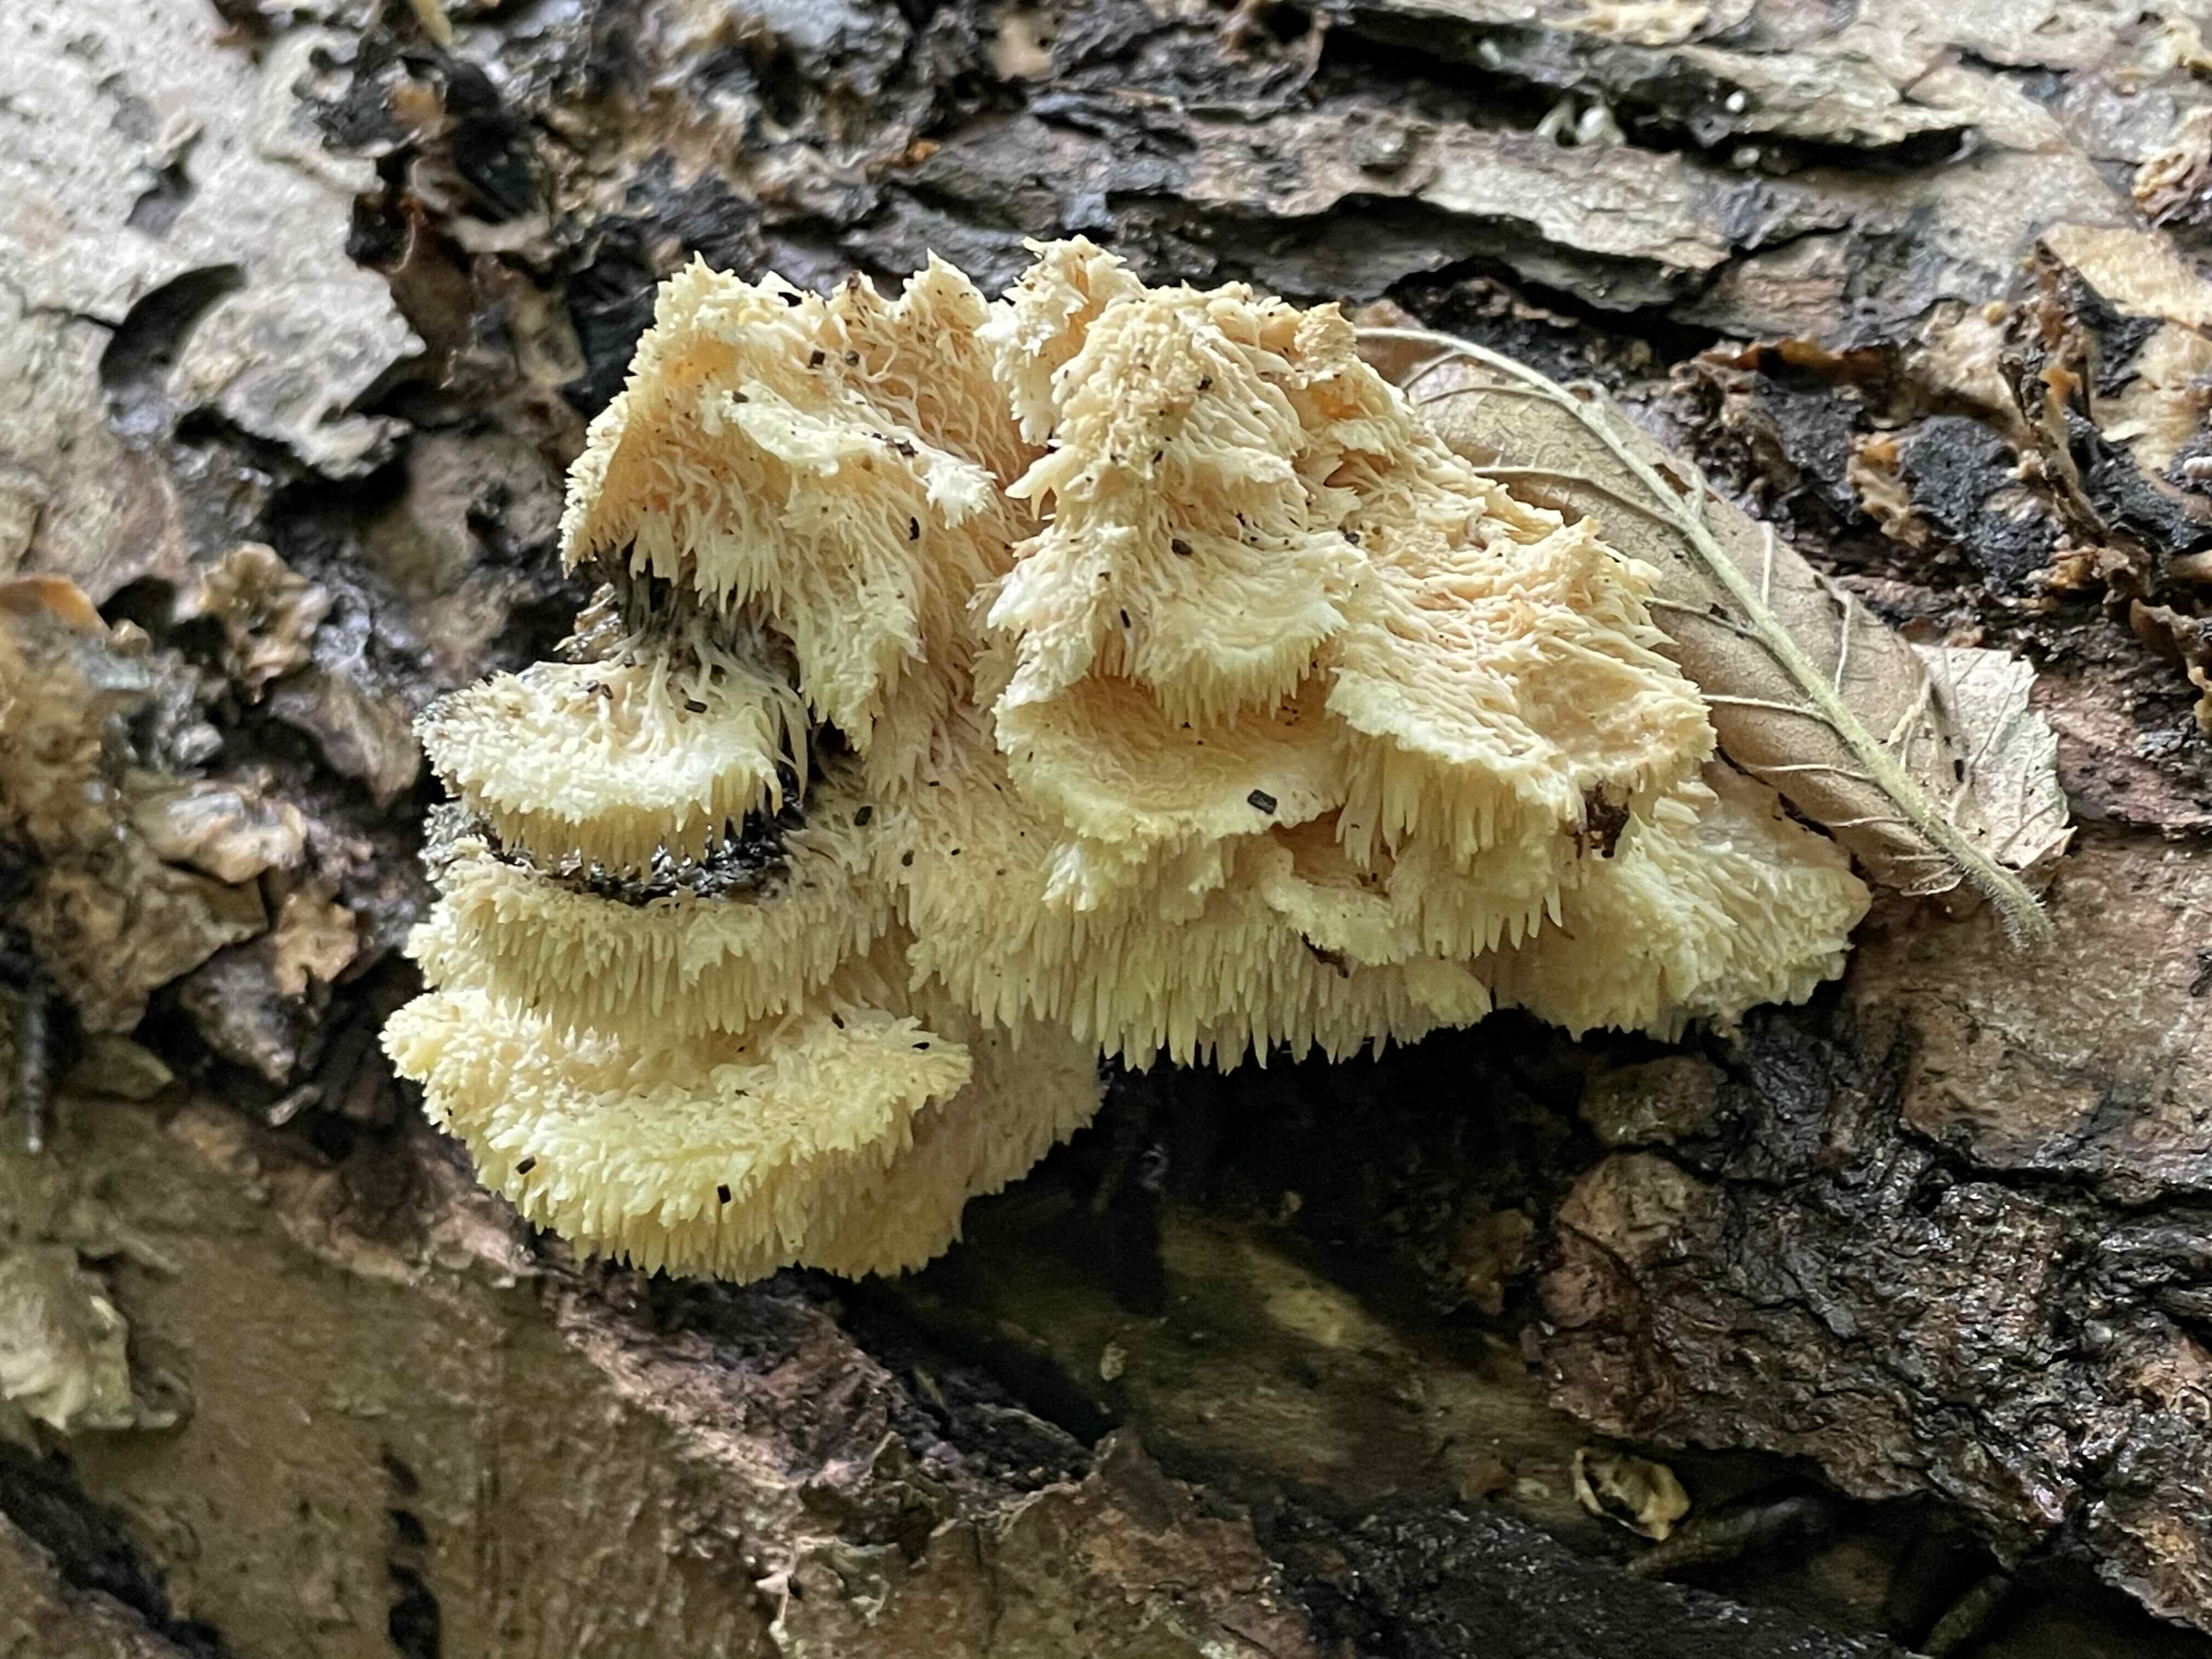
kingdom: Fungi
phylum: Basidiomycota
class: Agaricomycetes
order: Russulales
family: Hericiaceae
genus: Hericium
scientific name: Hericium cirrhatum
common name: børstepigsvamp
